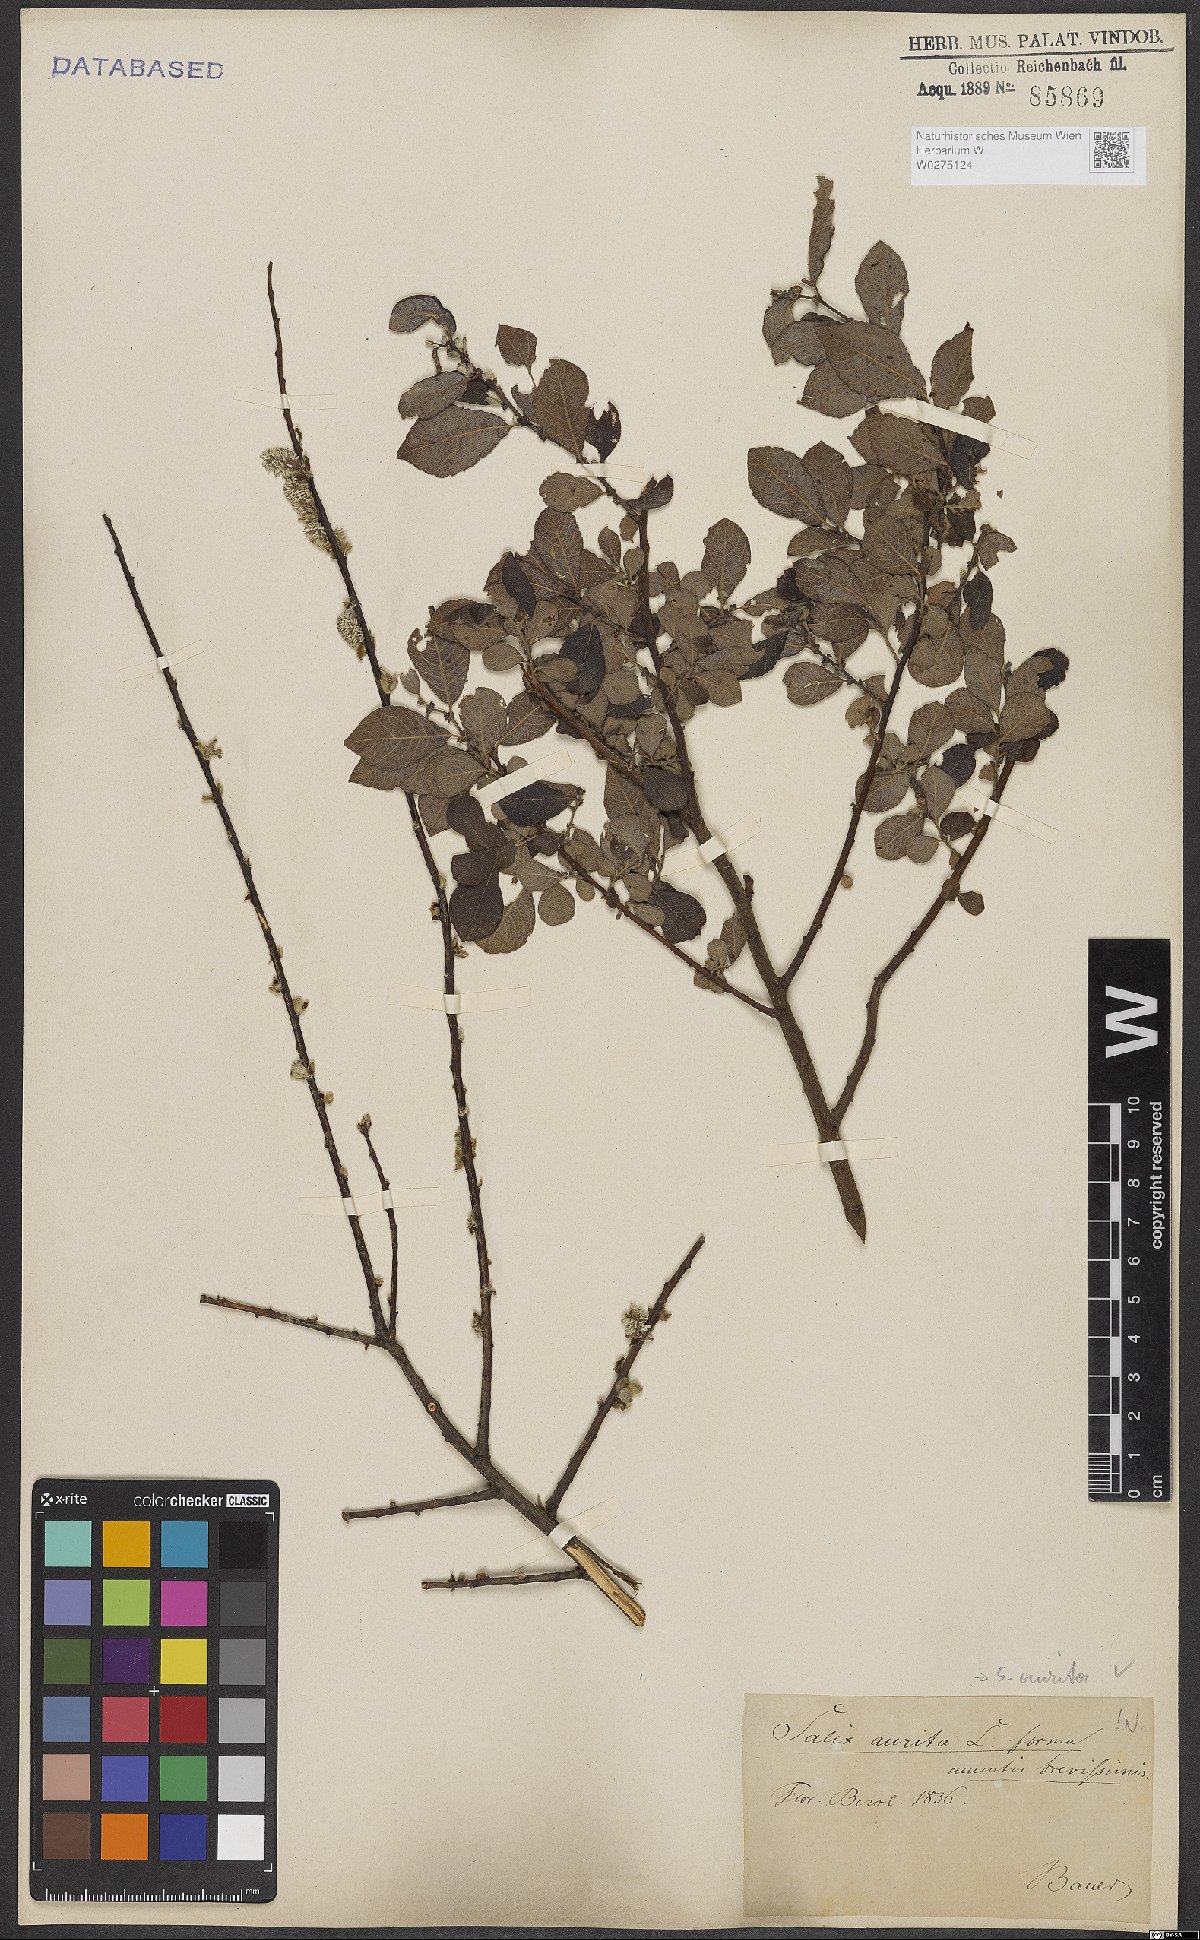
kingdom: Plantae
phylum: Tracheophyta
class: Magnoliopsida
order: Malpighiales
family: Salicaceae
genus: Salix
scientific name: Salix aurita
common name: Eared willow
